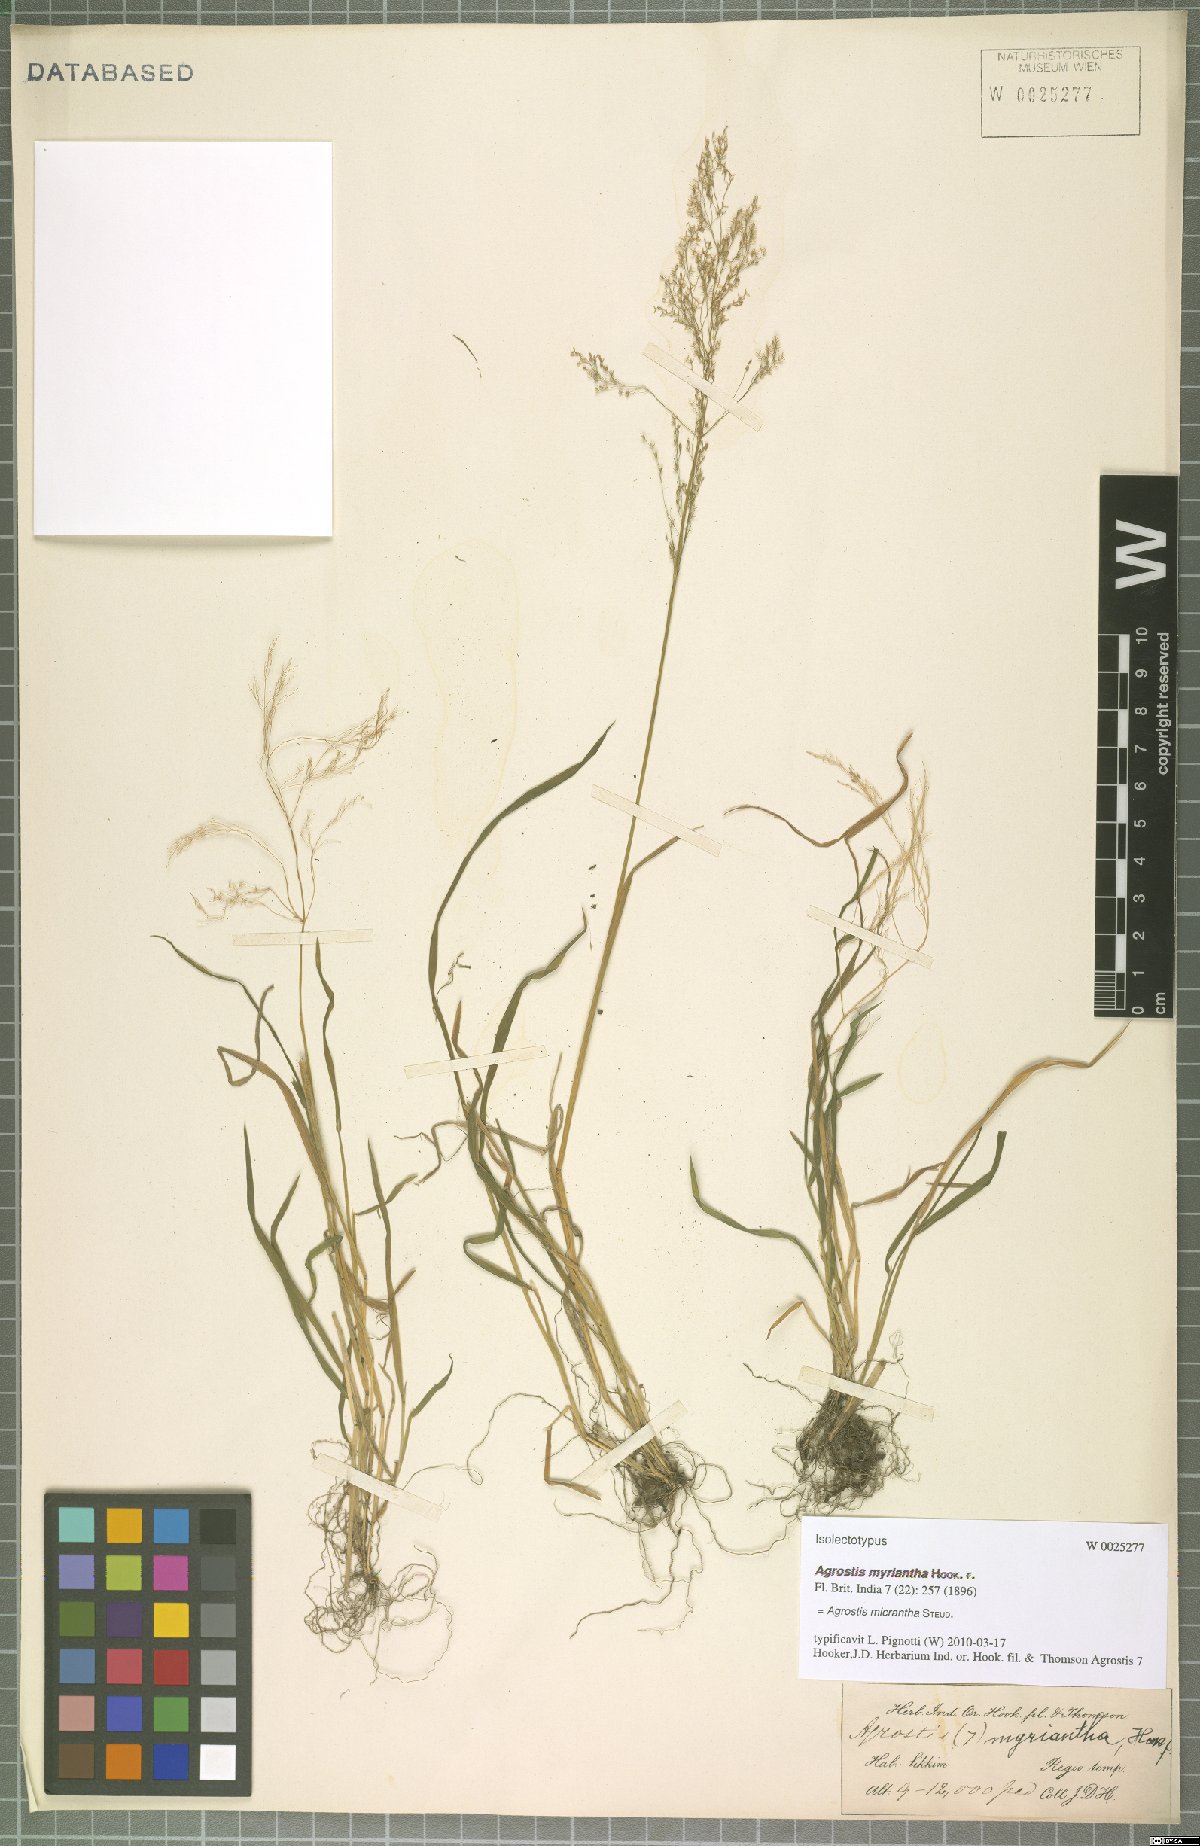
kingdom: Plantae
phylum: Tracheophyta
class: Liliopsida
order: Poales
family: Poaceae
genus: Agrostis
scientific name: Agrostis micrantha
